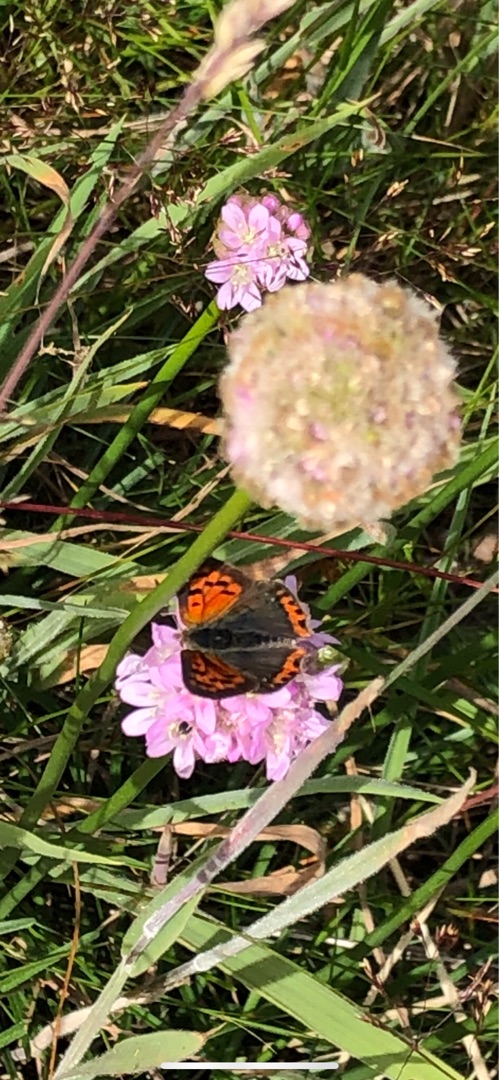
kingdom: Animalia
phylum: Arthropoda
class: Insecta
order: Lepidoptera
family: Lycaenidae
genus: Lycaena
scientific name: Lycaena phlaeas
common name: Lille ildfugl
